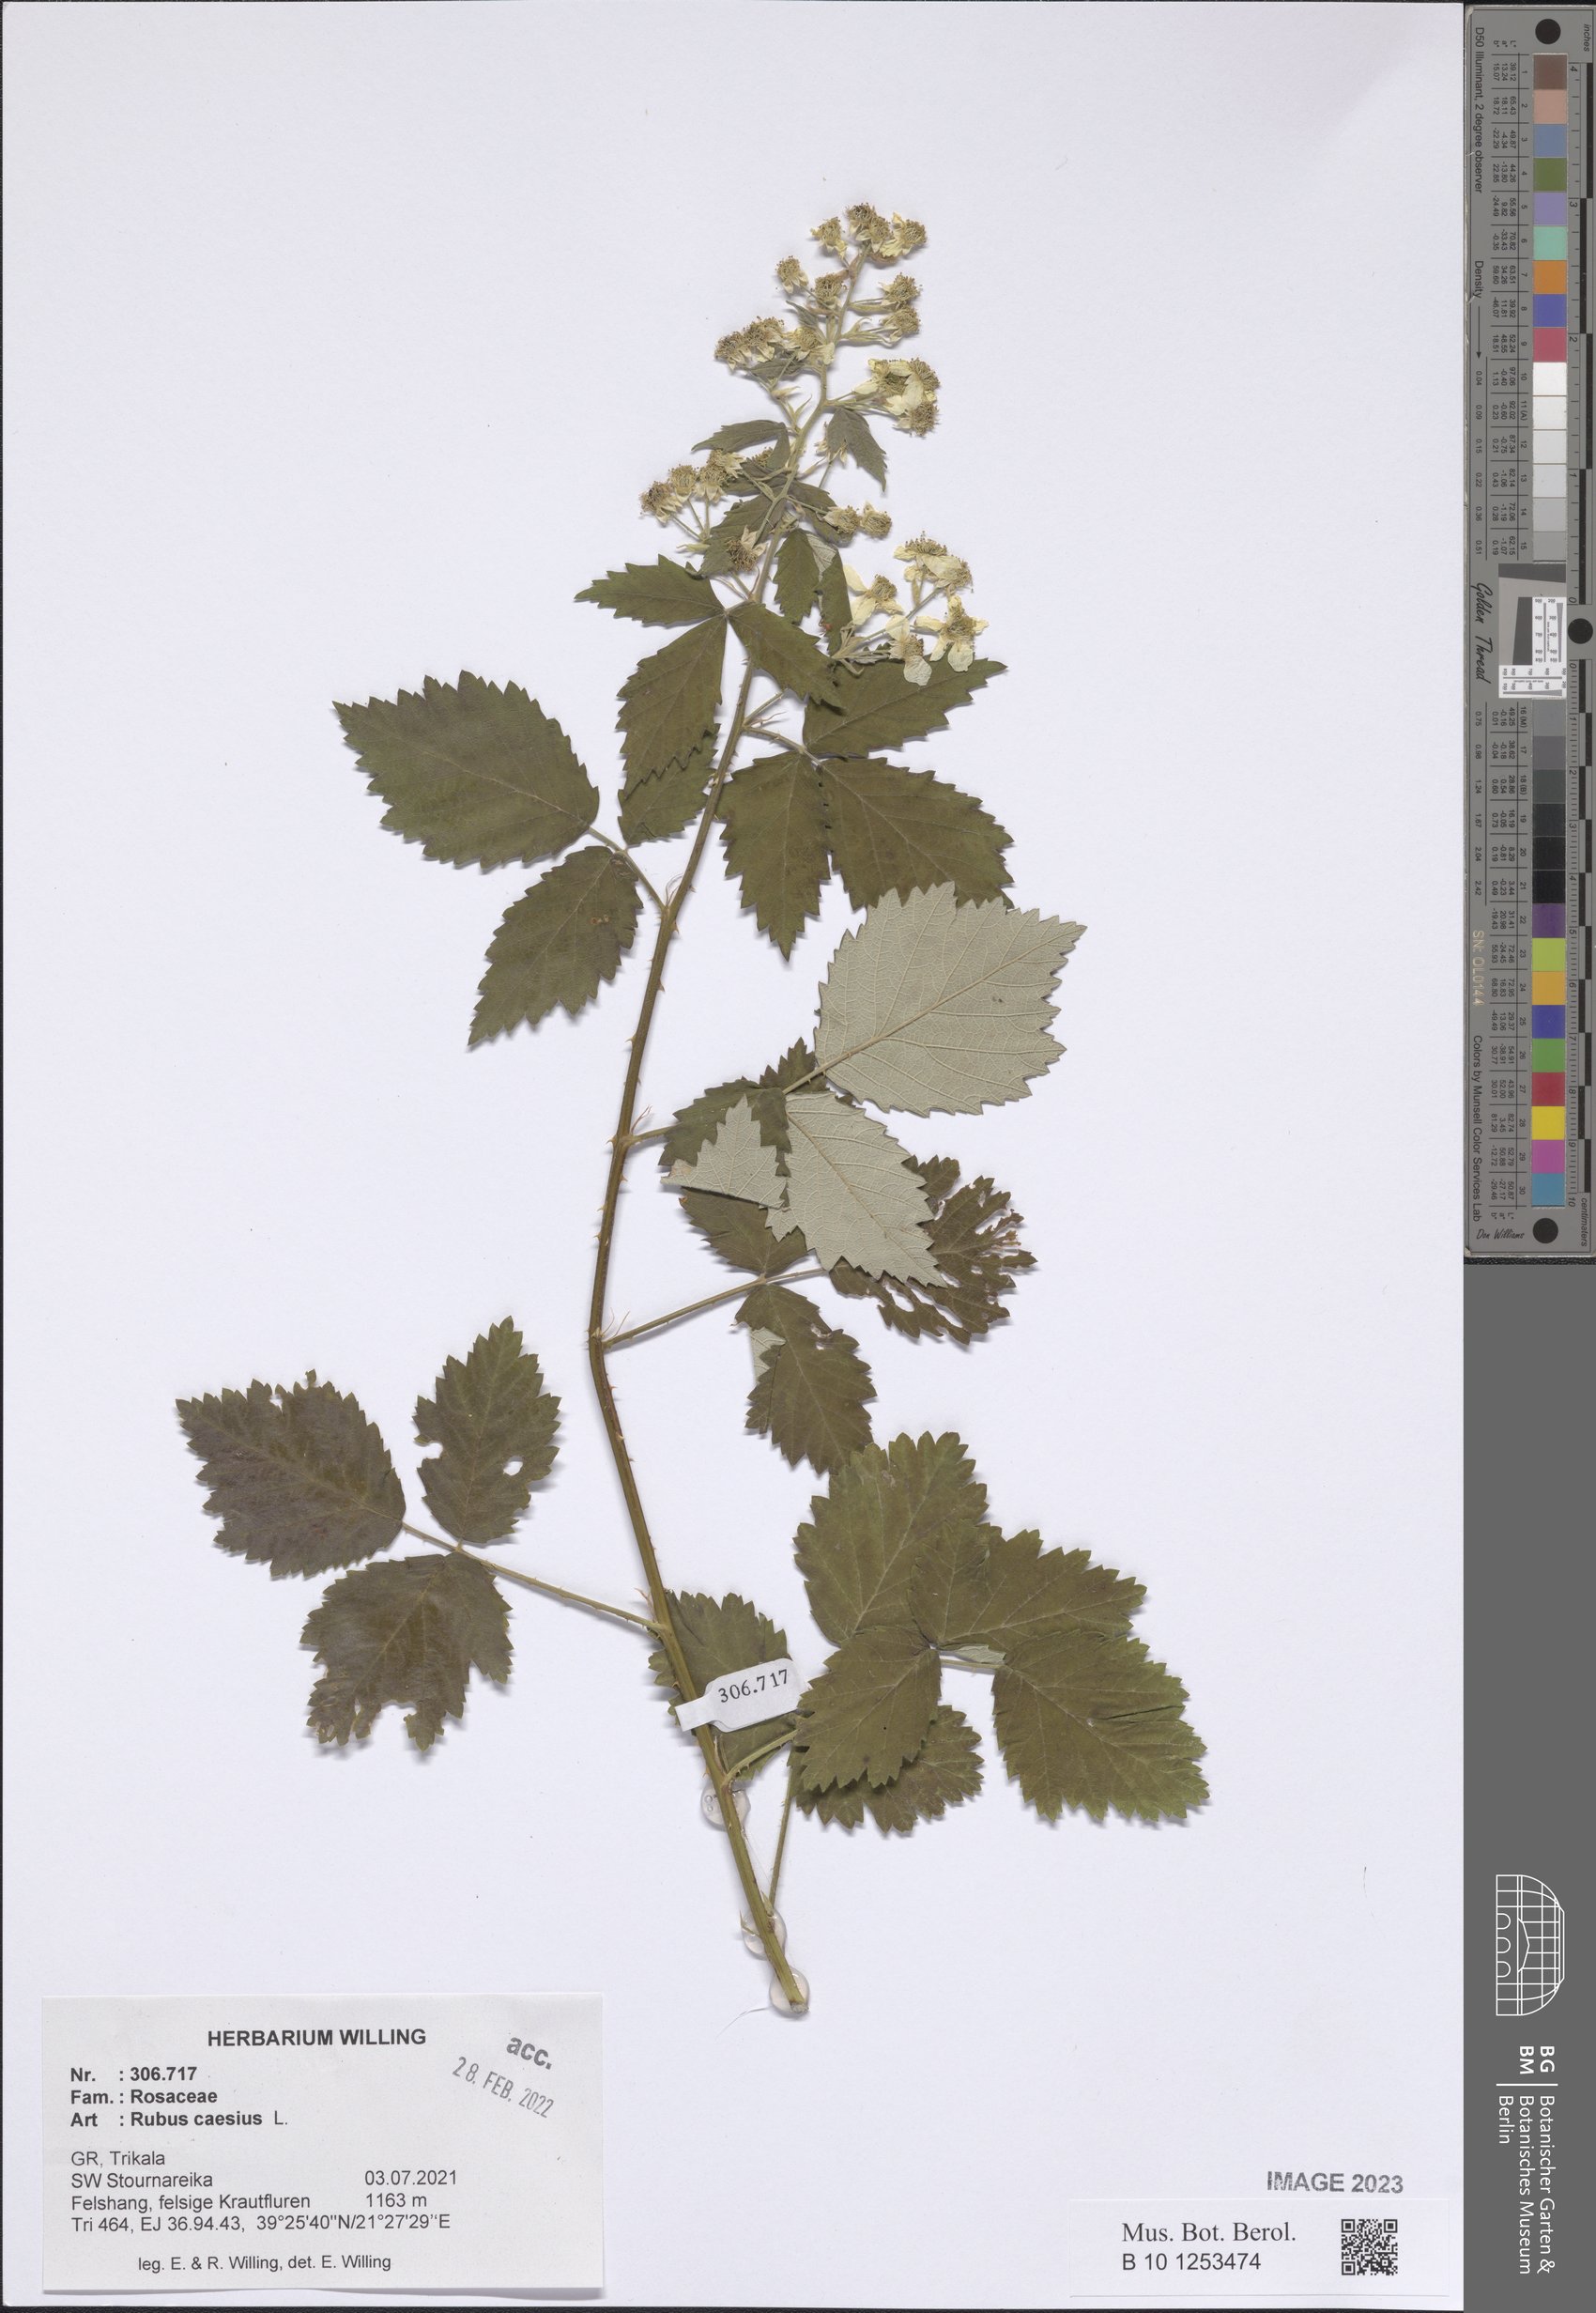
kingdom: Plantae
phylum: Tracheophyta
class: Magnoliopsida
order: Rosales
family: Rosaceae
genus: Rubus
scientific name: Rubus caesius
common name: Dewberry
